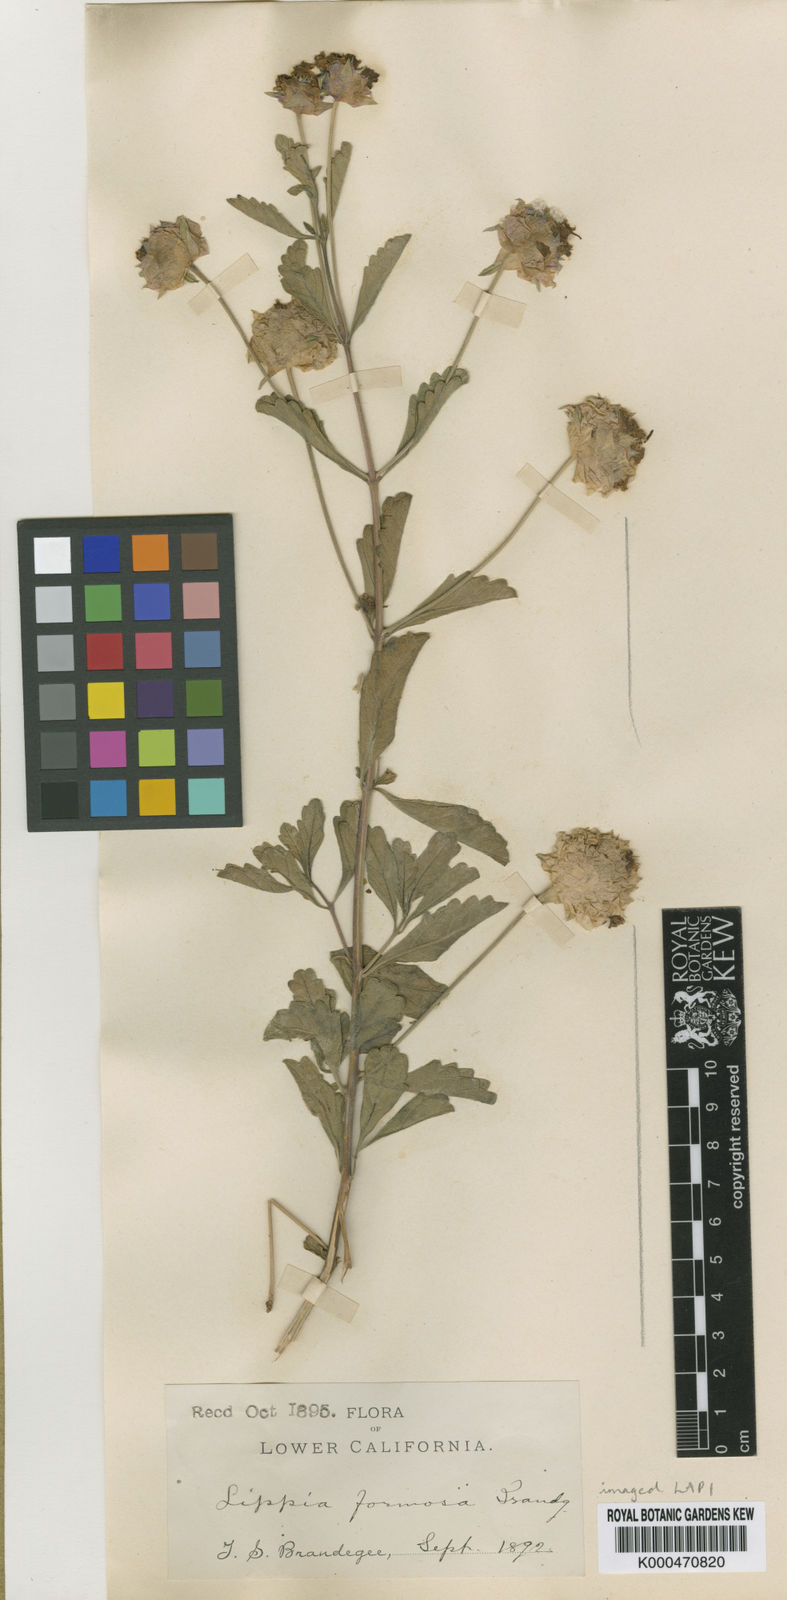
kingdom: Plantae
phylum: Tracheophyta
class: Magnoliopsida
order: Lamiales
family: Verbenaceae
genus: Lippia
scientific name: Lippia formosa
